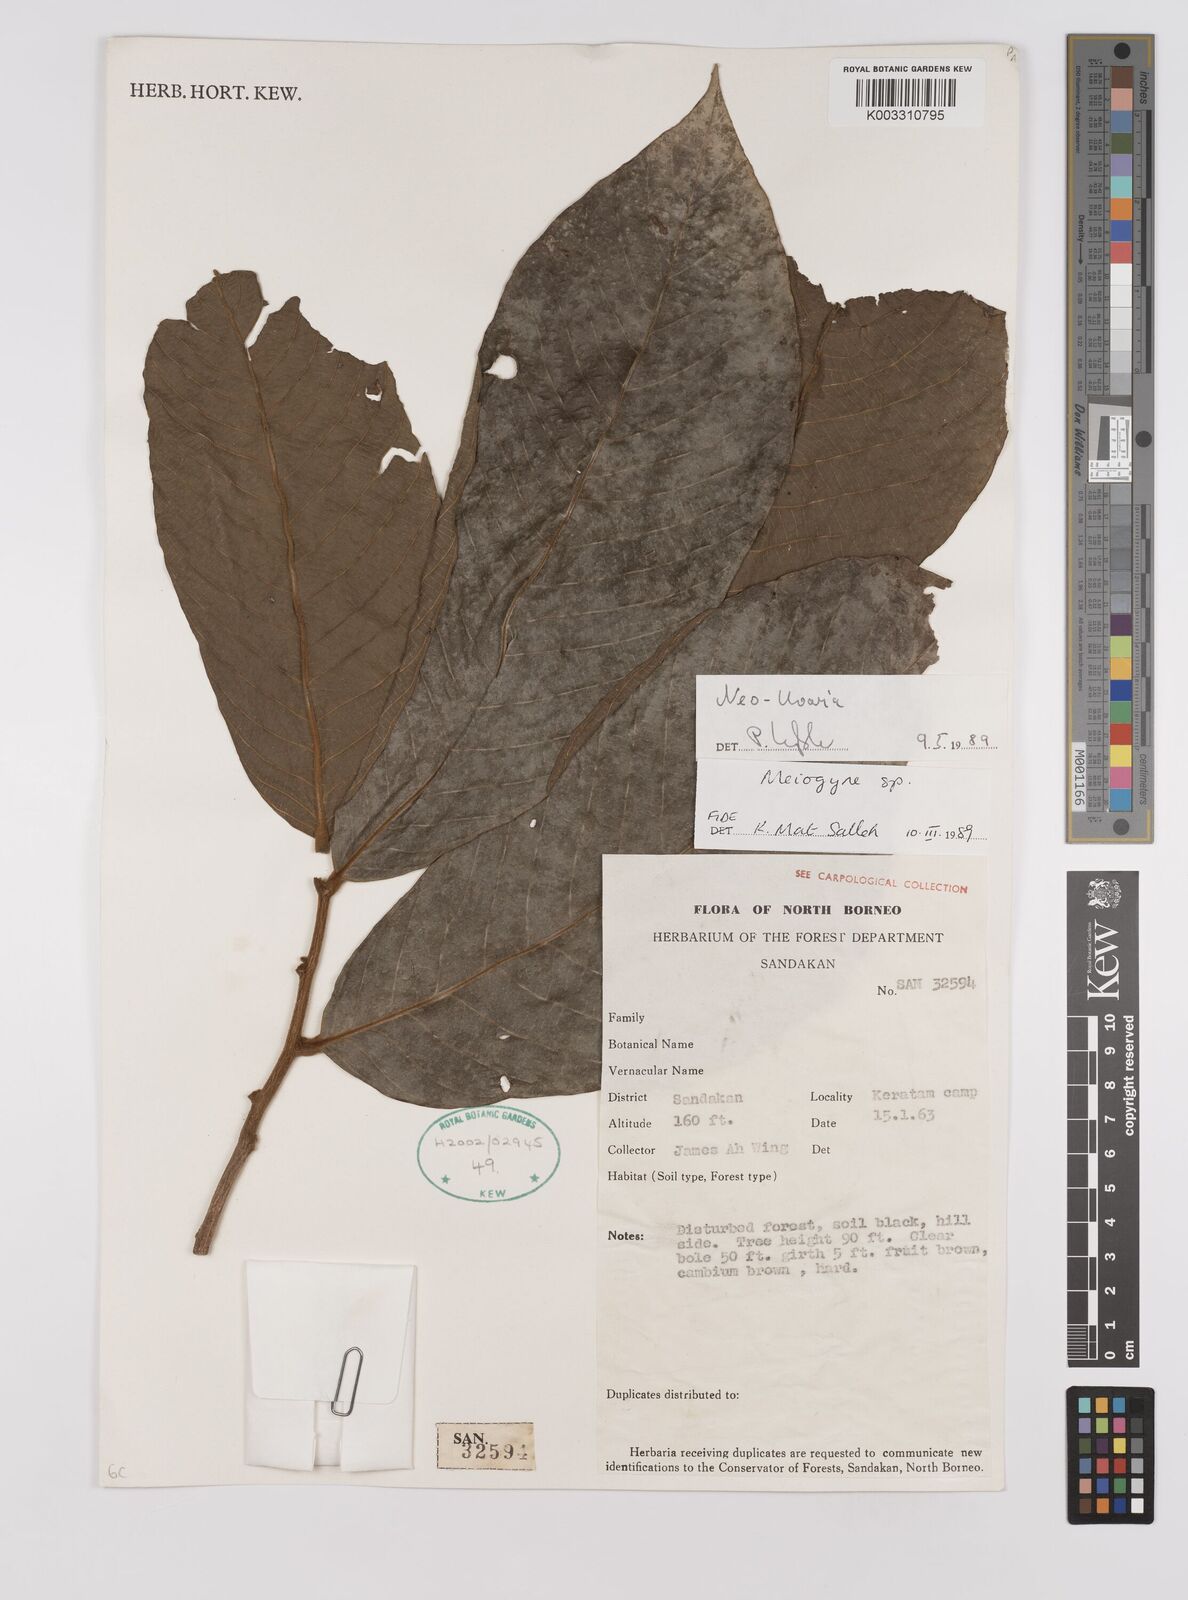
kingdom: Plantae
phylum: Tracheophyta
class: Magnoliopsida
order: Magnoliales
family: Annonaceae
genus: Neo-uvaria
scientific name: Neo-uvaria
